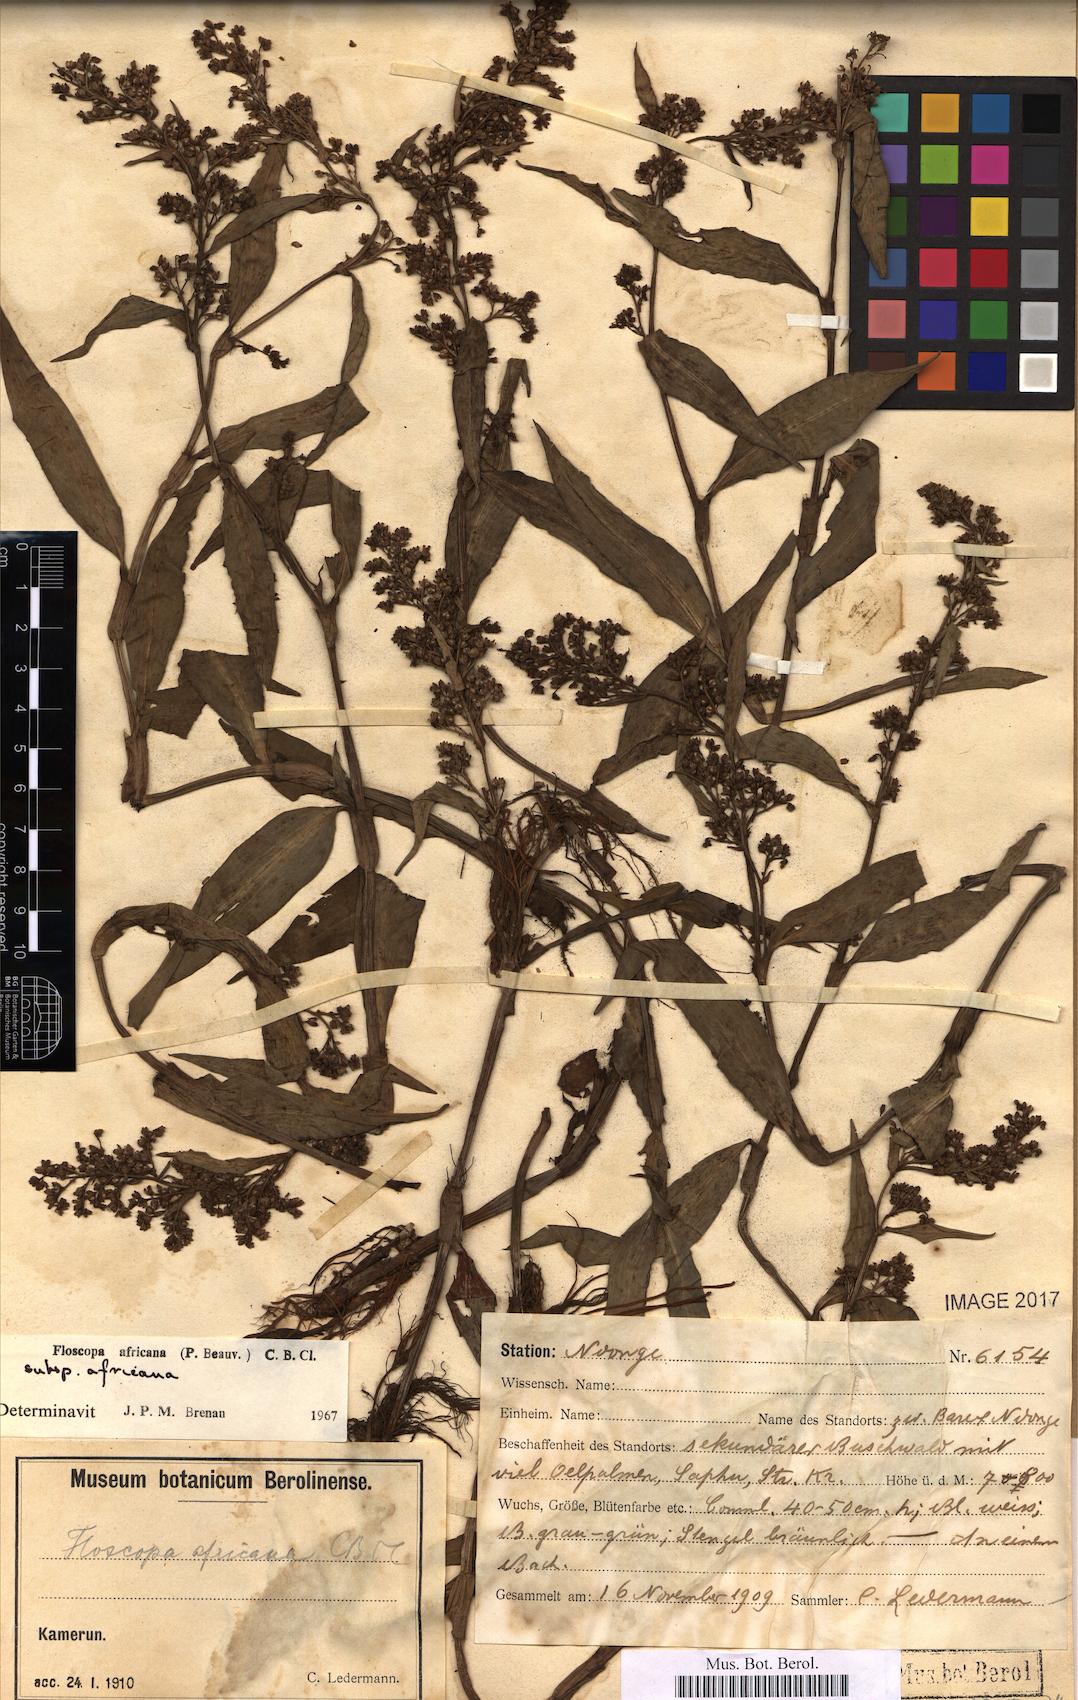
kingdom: Plantae
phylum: Tracheophyta
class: Liliopsida
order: Commelinales
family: Commelinaceae
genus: Floscopa
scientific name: Floscopa africana
